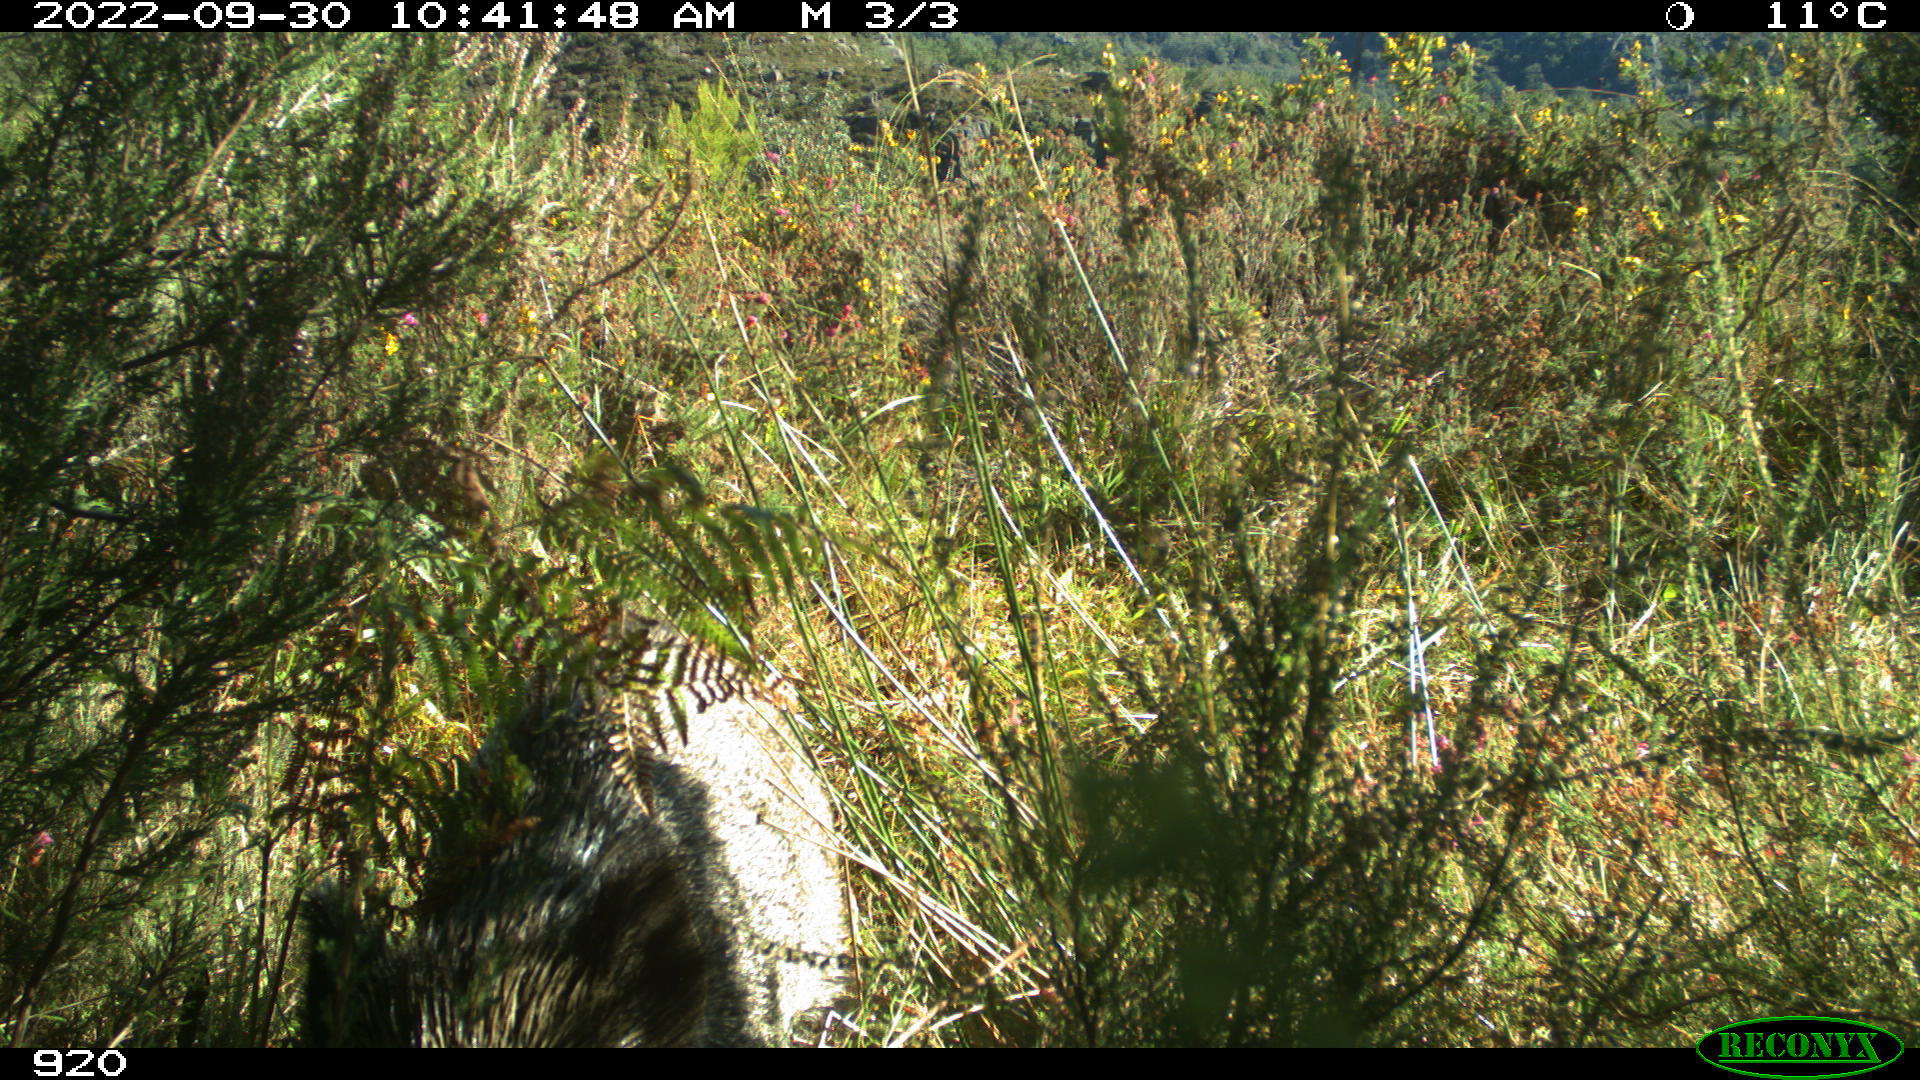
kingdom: Animalia
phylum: Chordata
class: Mammalia
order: Artiodactyla
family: Suidae
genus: Sus
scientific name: Sus scrofa
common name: Wild boar
